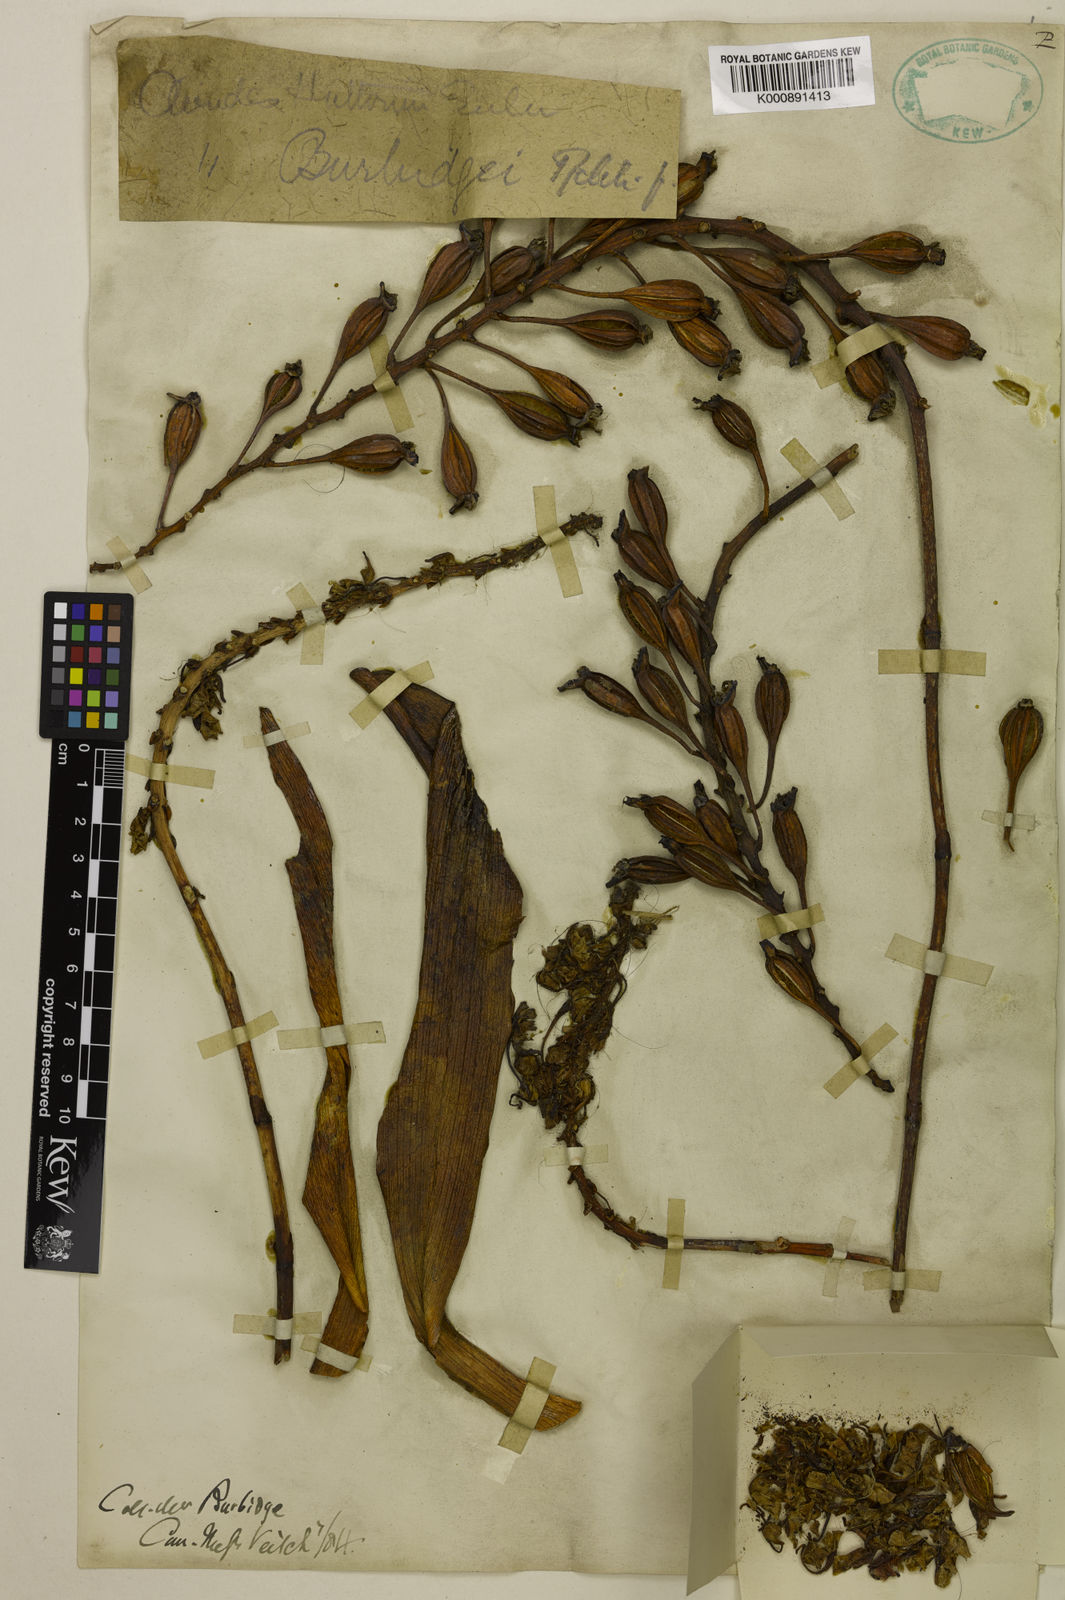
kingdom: Plantae
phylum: Tracheophyta
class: Liliopsida
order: Asparagales
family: Orchidaceae
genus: Aerides
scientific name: Aerides burbidgei
